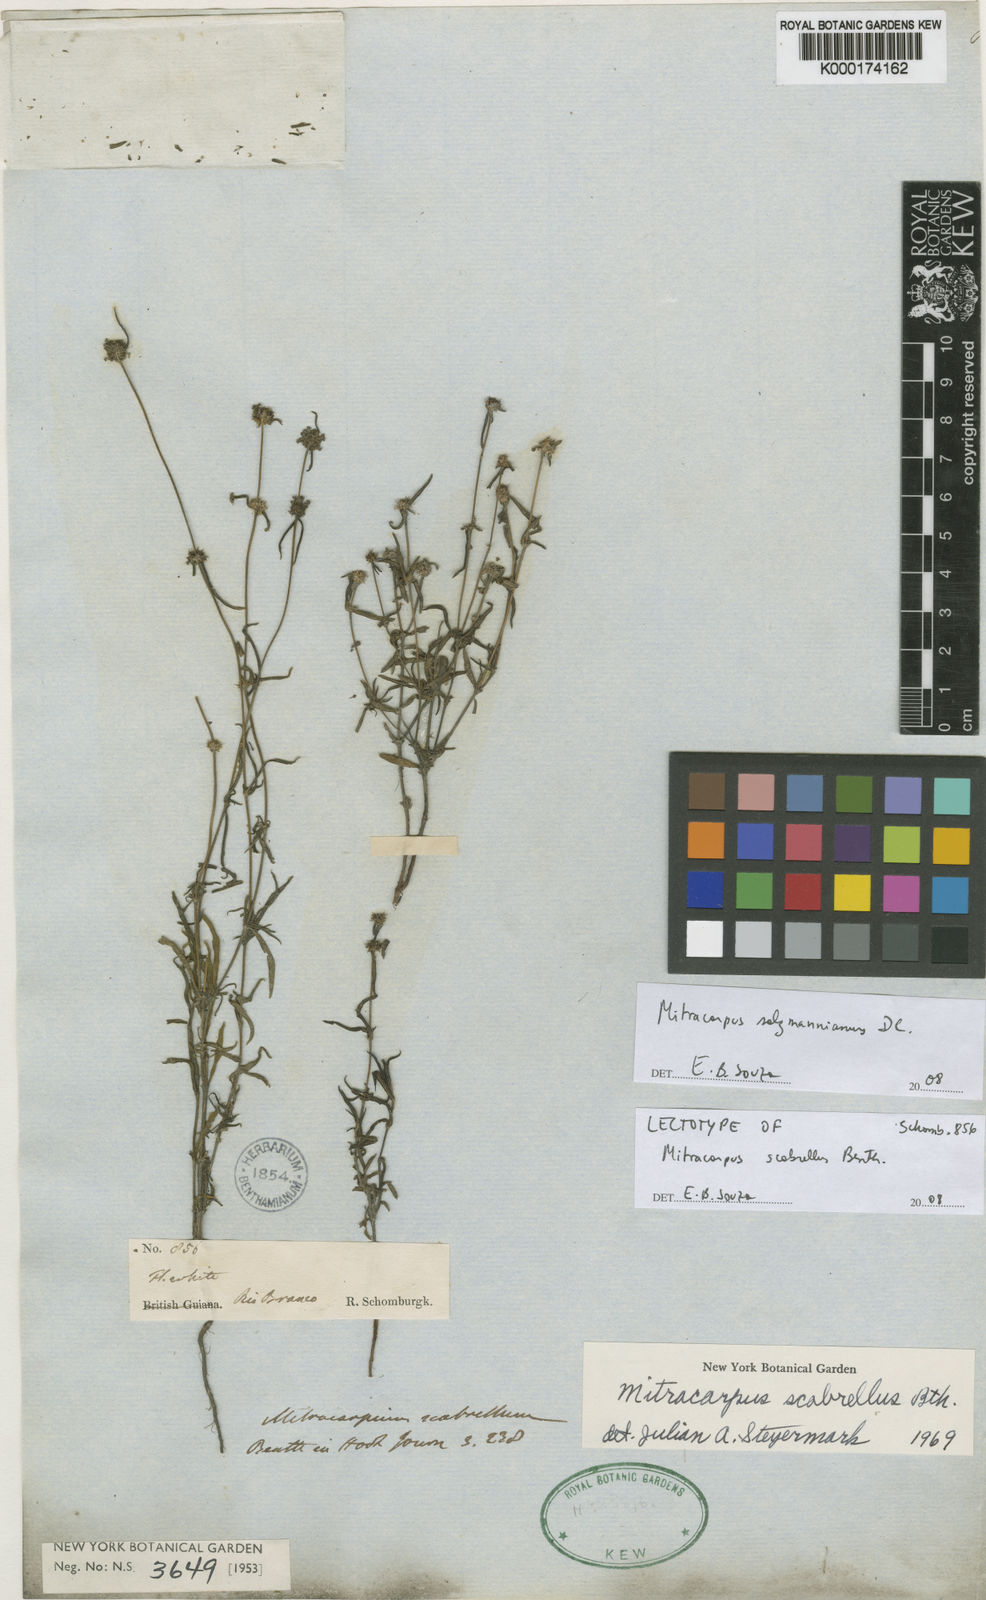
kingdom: Plantae
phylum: Tracheophyta
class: Magnoliopsida
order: Gentianales
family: Rubiaceae
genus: Mitracarpus
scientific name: Mitracarpus salzmannianus
